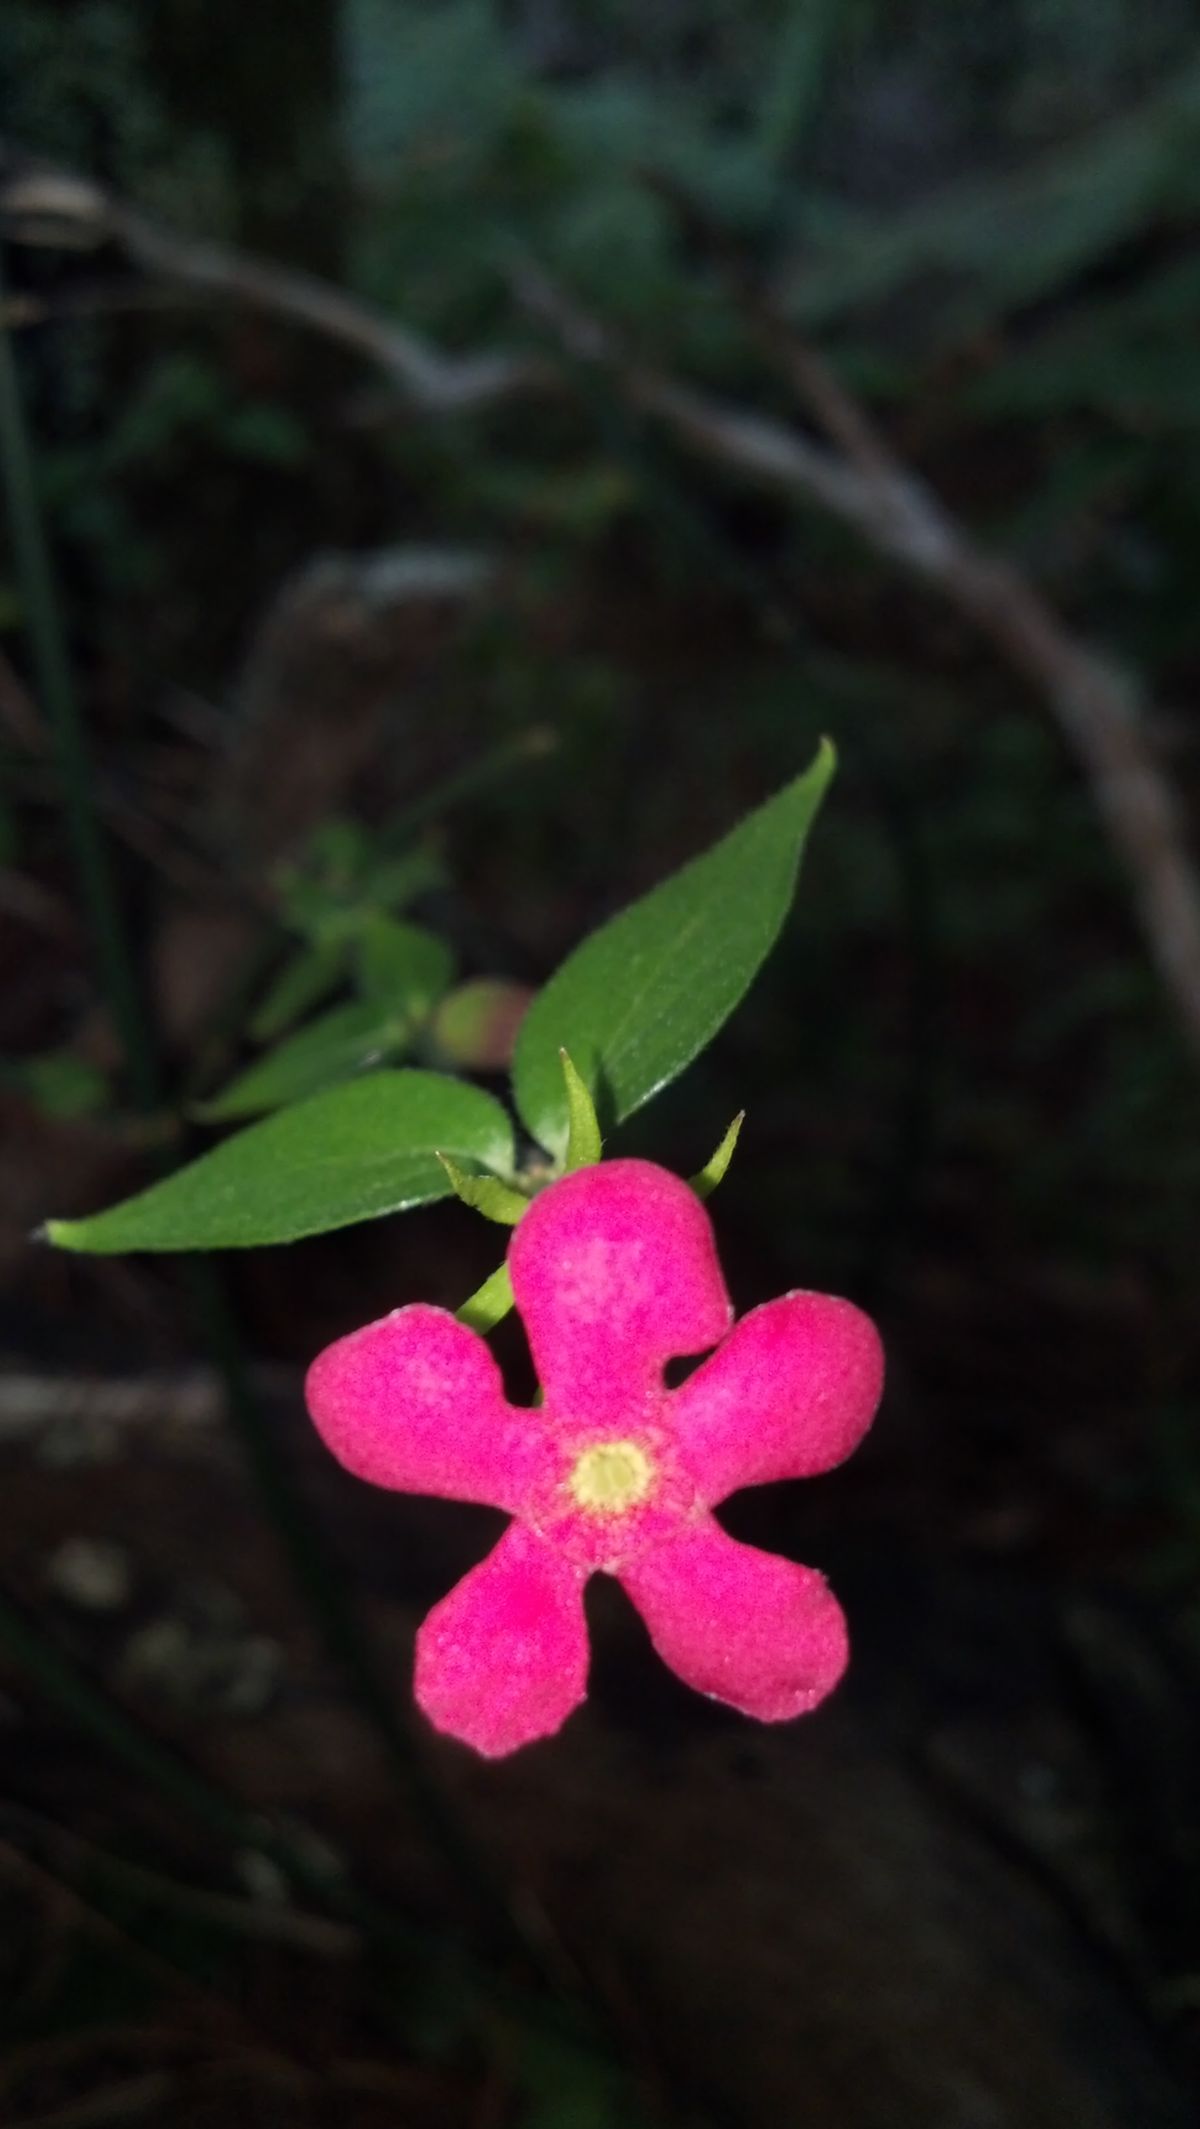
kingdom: Plantae
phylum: Tracheophyta
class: Magnoliopsida
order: Gentianales
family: Rubiaceae
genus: Rovaeanthus
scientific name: Rovaeanthus strigosus
